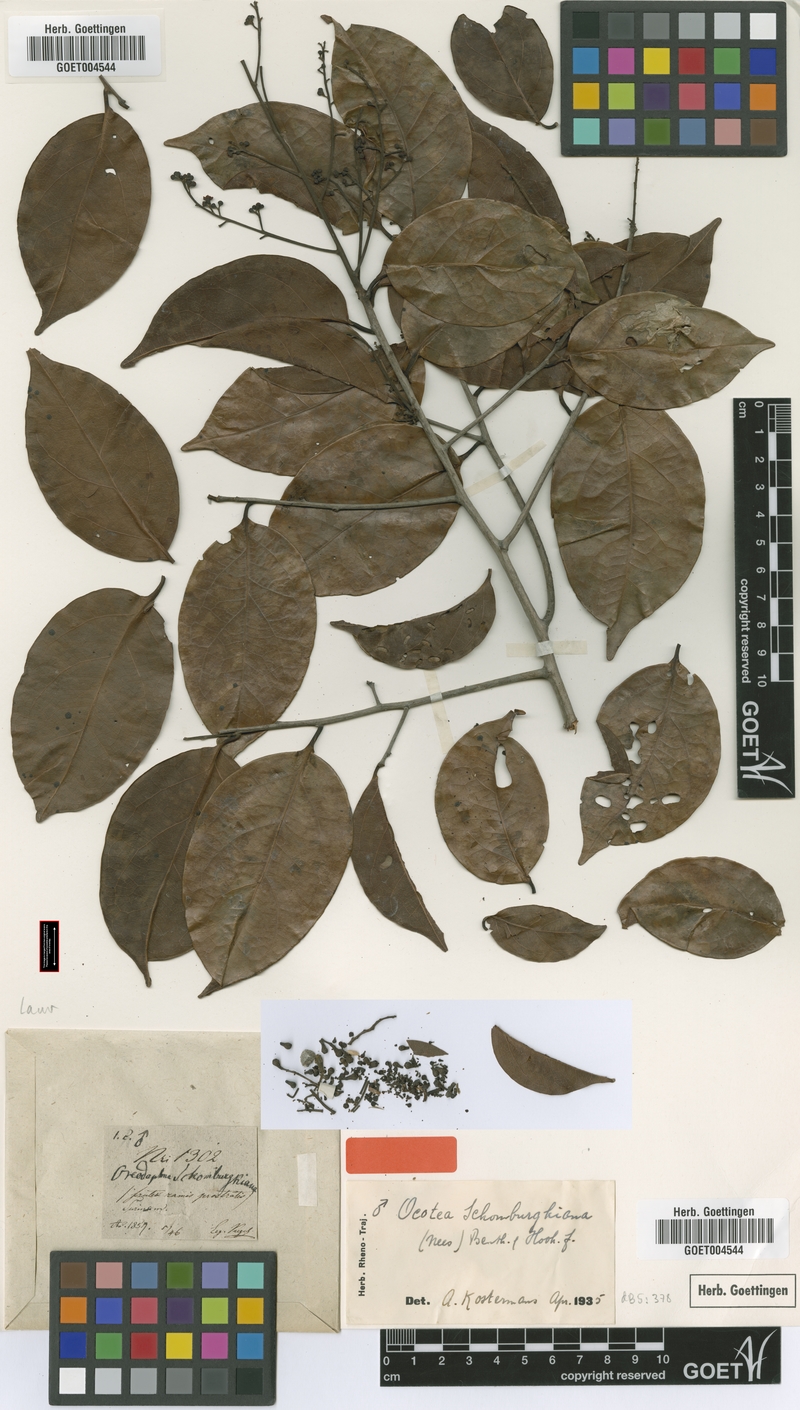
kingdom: Plantae
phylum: Tracheophyta
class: Magnoliopsida
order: Laurales
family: Lauraceae
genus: Ocotea
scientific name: Ocotea schomburgkiana
